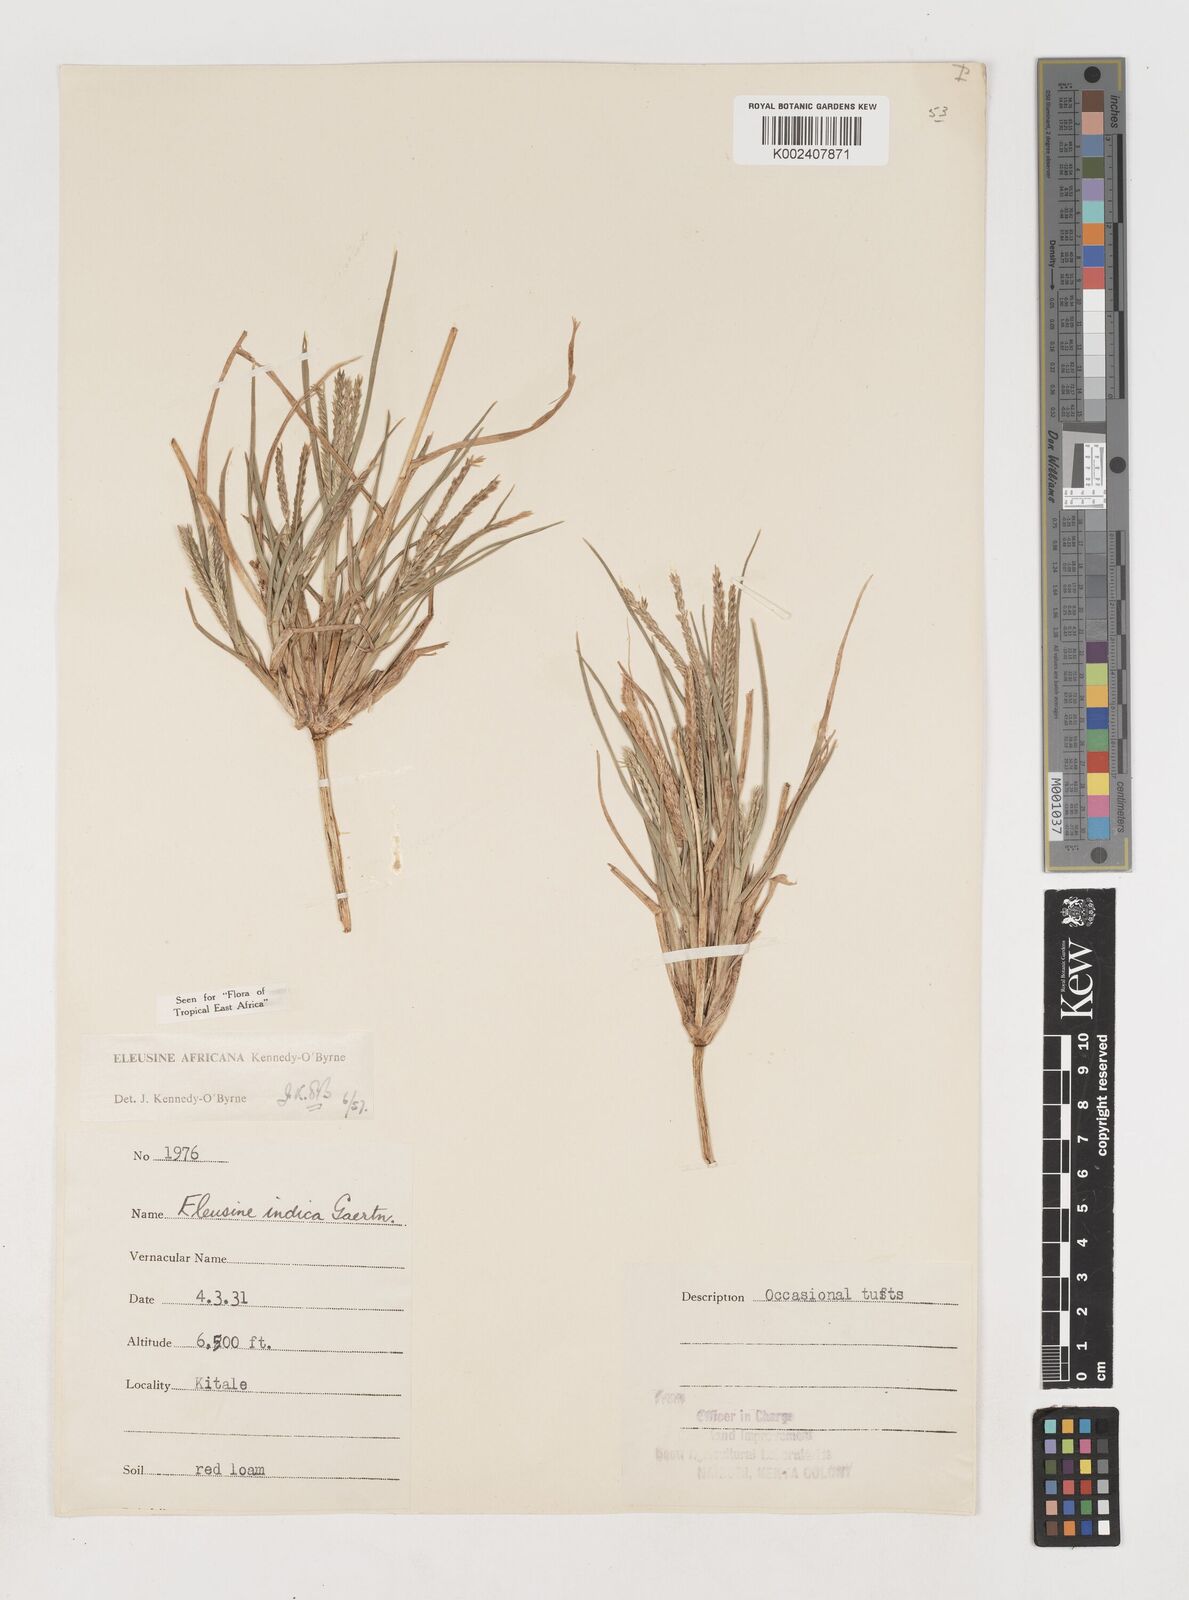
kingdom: Plantae
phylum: Tracheophyta
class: Liliopsida
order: Poales
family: Poaceae
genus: Eleusine
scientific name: Eleusine africana
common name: Wild african finger millet
